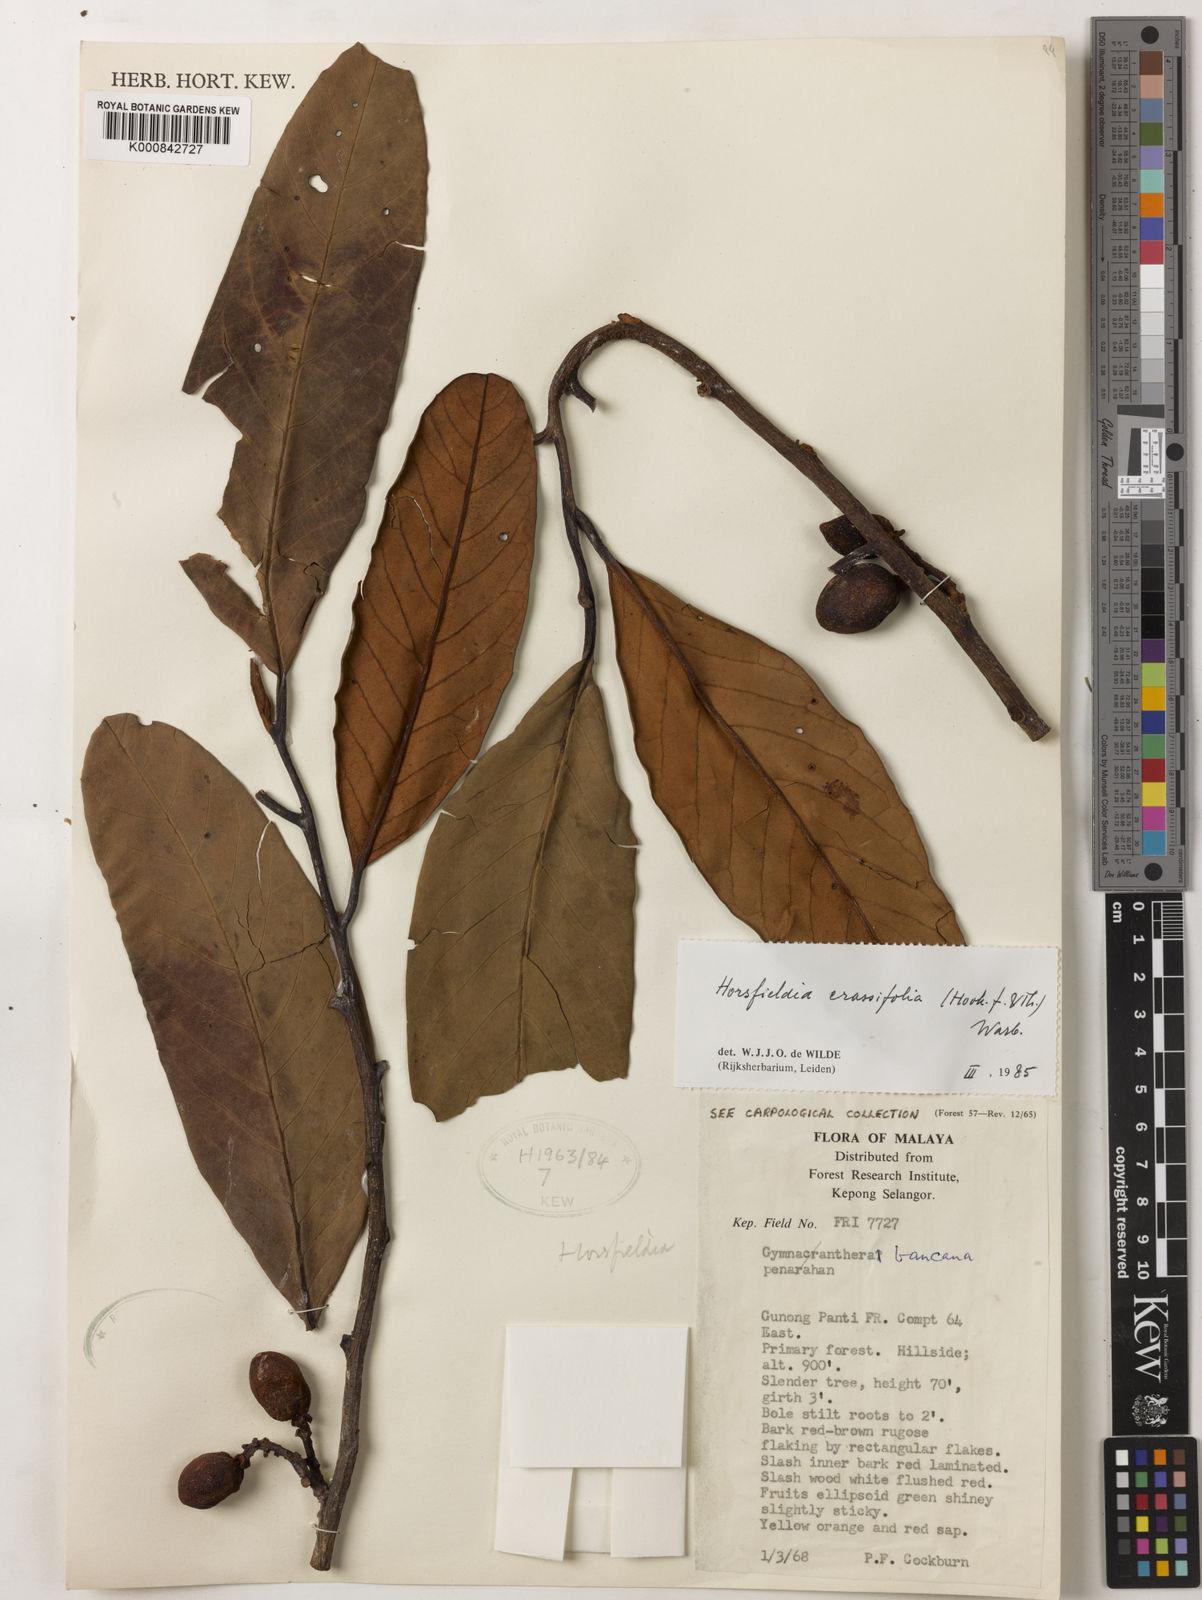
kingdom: Plantae
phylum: Tracheophyta
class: Magnoliopsida
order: Magnoliales
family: Myristicaceae
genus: Horsfieldia
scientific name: Horsfieldia crassifolia
